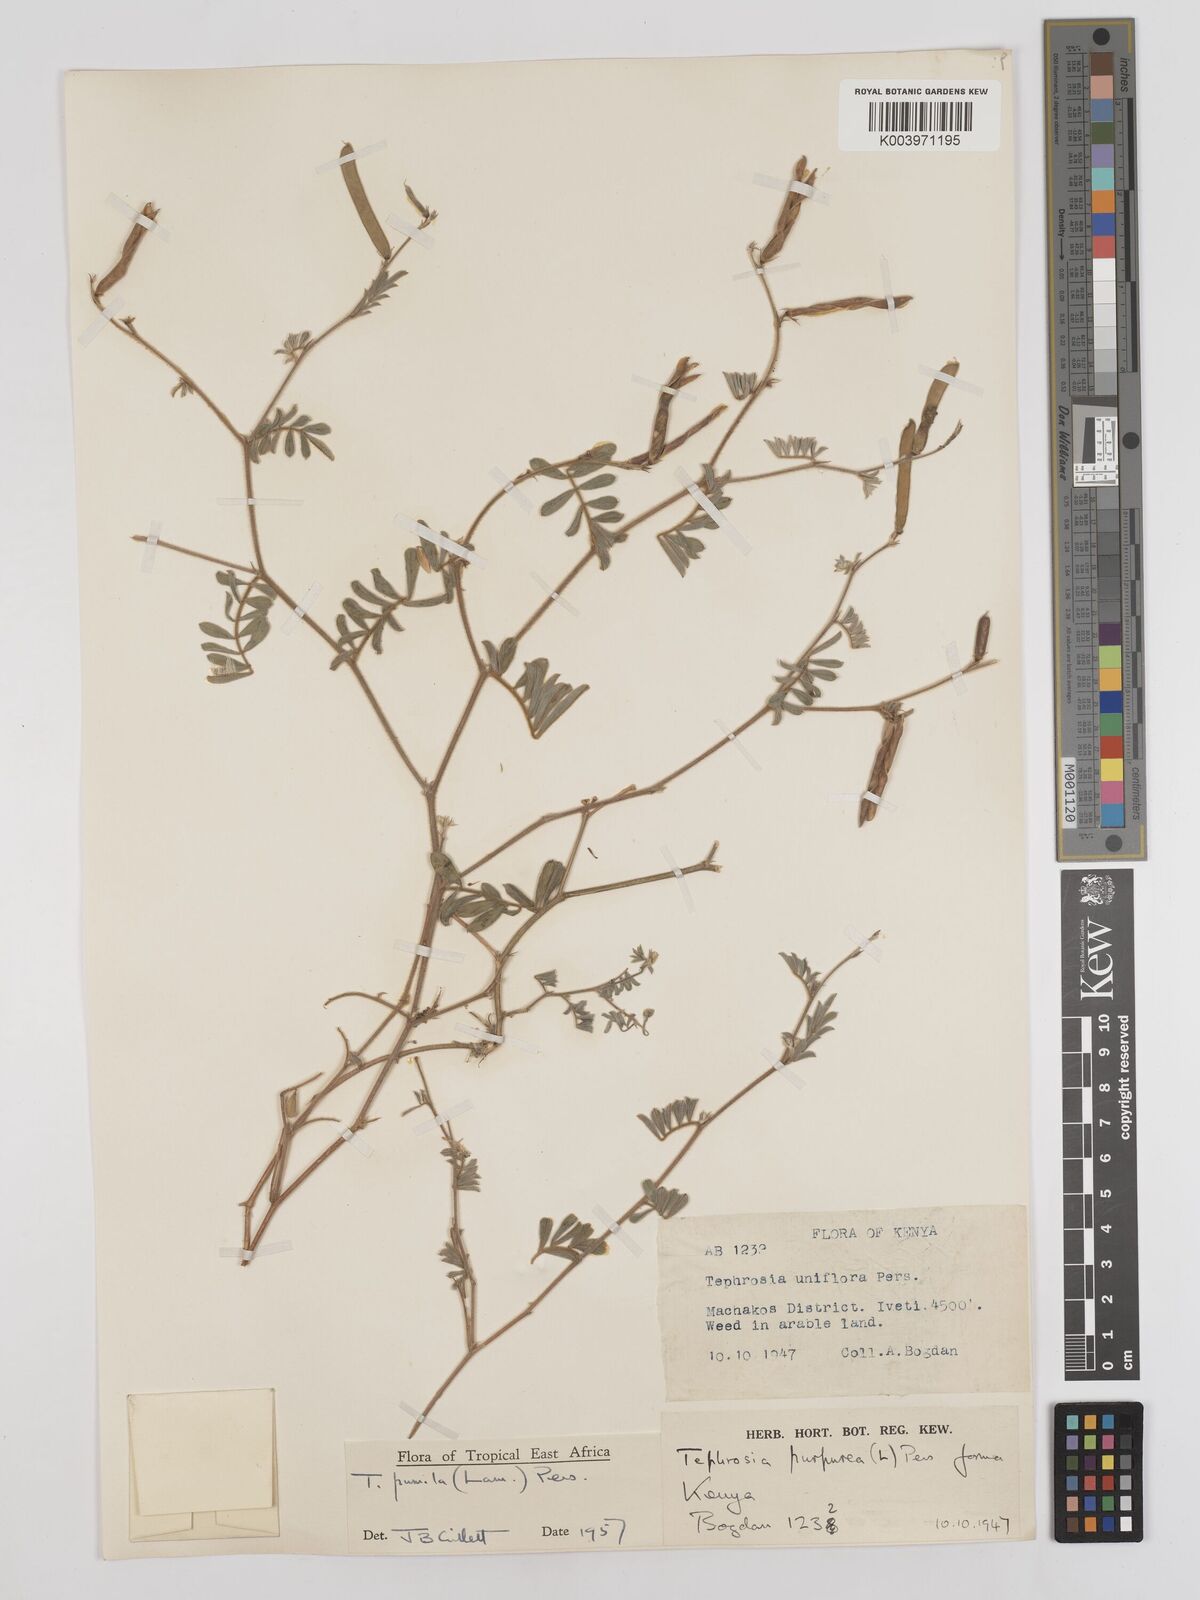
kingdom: Plantae
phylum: Tracheophyta
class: Magnoliopsida
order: Fabales
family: Fabaceae
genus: Tephrosia
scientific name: Tephrosia pumila
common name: Indigo sauvage
